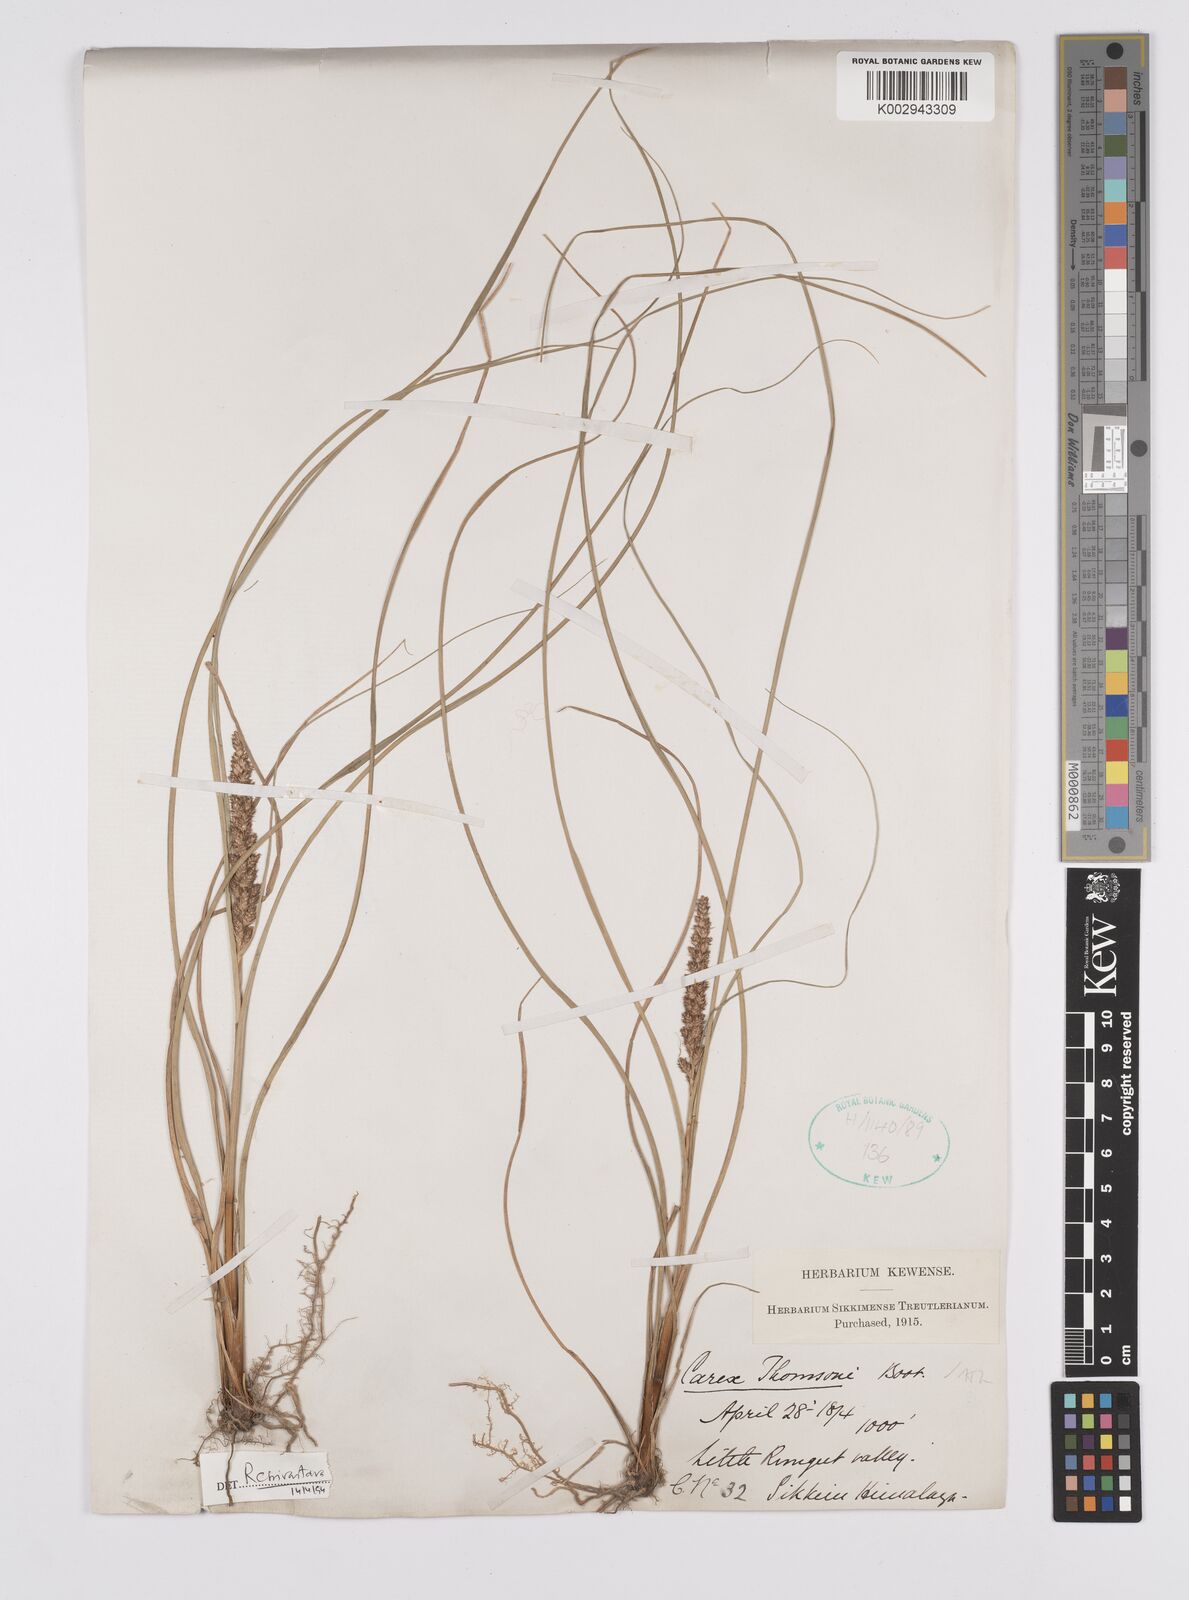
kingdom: Plantae
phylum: Tracheophyta
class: Liliopsida
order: Poales
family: Cyperaceae
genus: Carex
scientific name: Carex thomsonii
